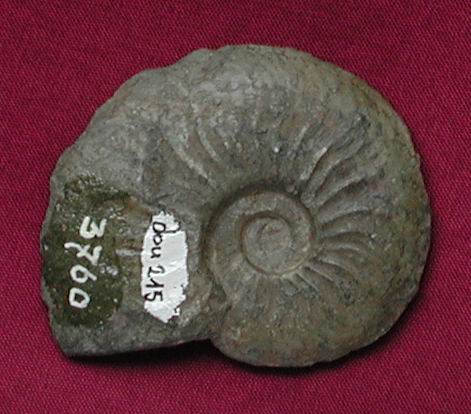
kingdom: Animalia
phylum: Mollusca
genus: Walkericeras
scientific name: Walkericeras
